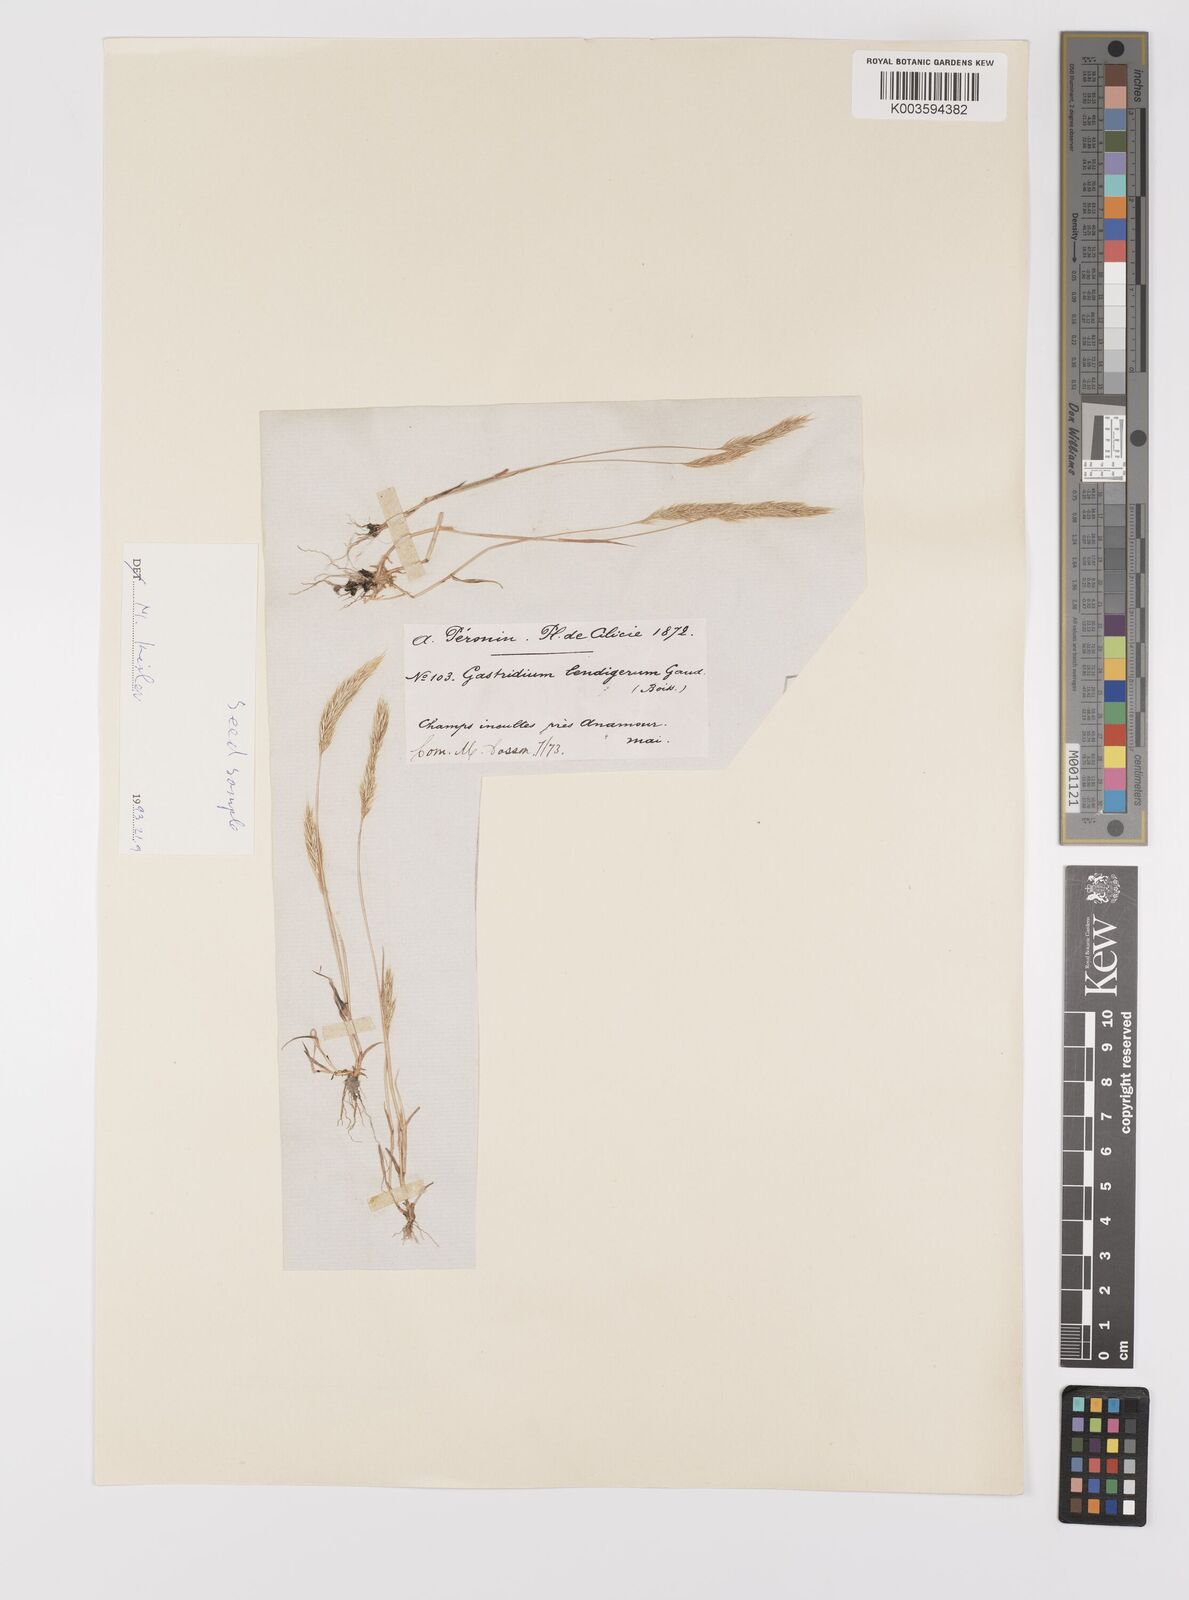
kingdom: Plantae
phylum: Tracheophyta
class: Liliopsida
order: Poales
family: Poaceae
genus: Gastridium
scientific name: Gastridium phleoides
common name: Nit grass
